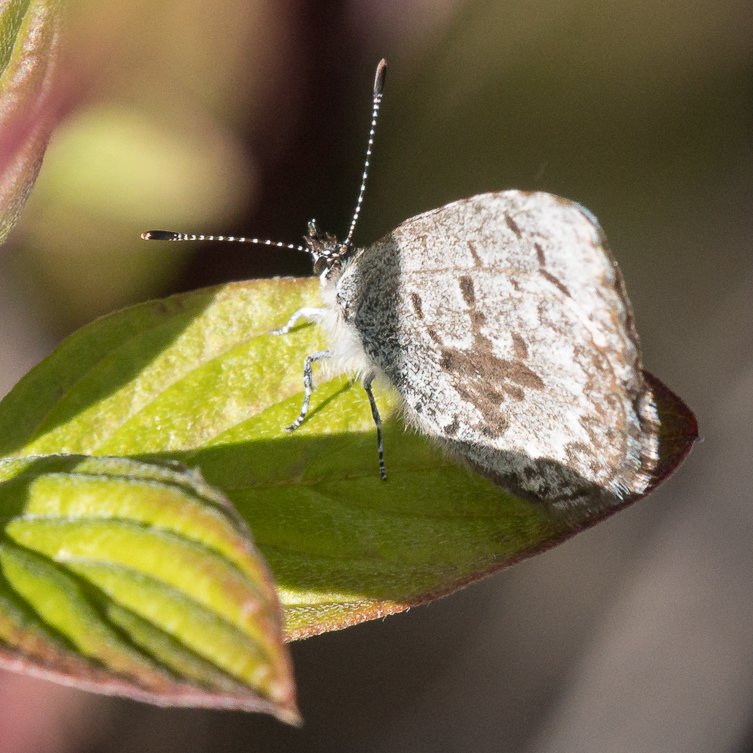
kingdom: Animalia
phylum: Arthropoda
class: Insecta
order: Lepidoptera
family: Lycaenidae
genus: Celastrina
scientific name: Celastrina lucia
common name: Northern Spring Azure
